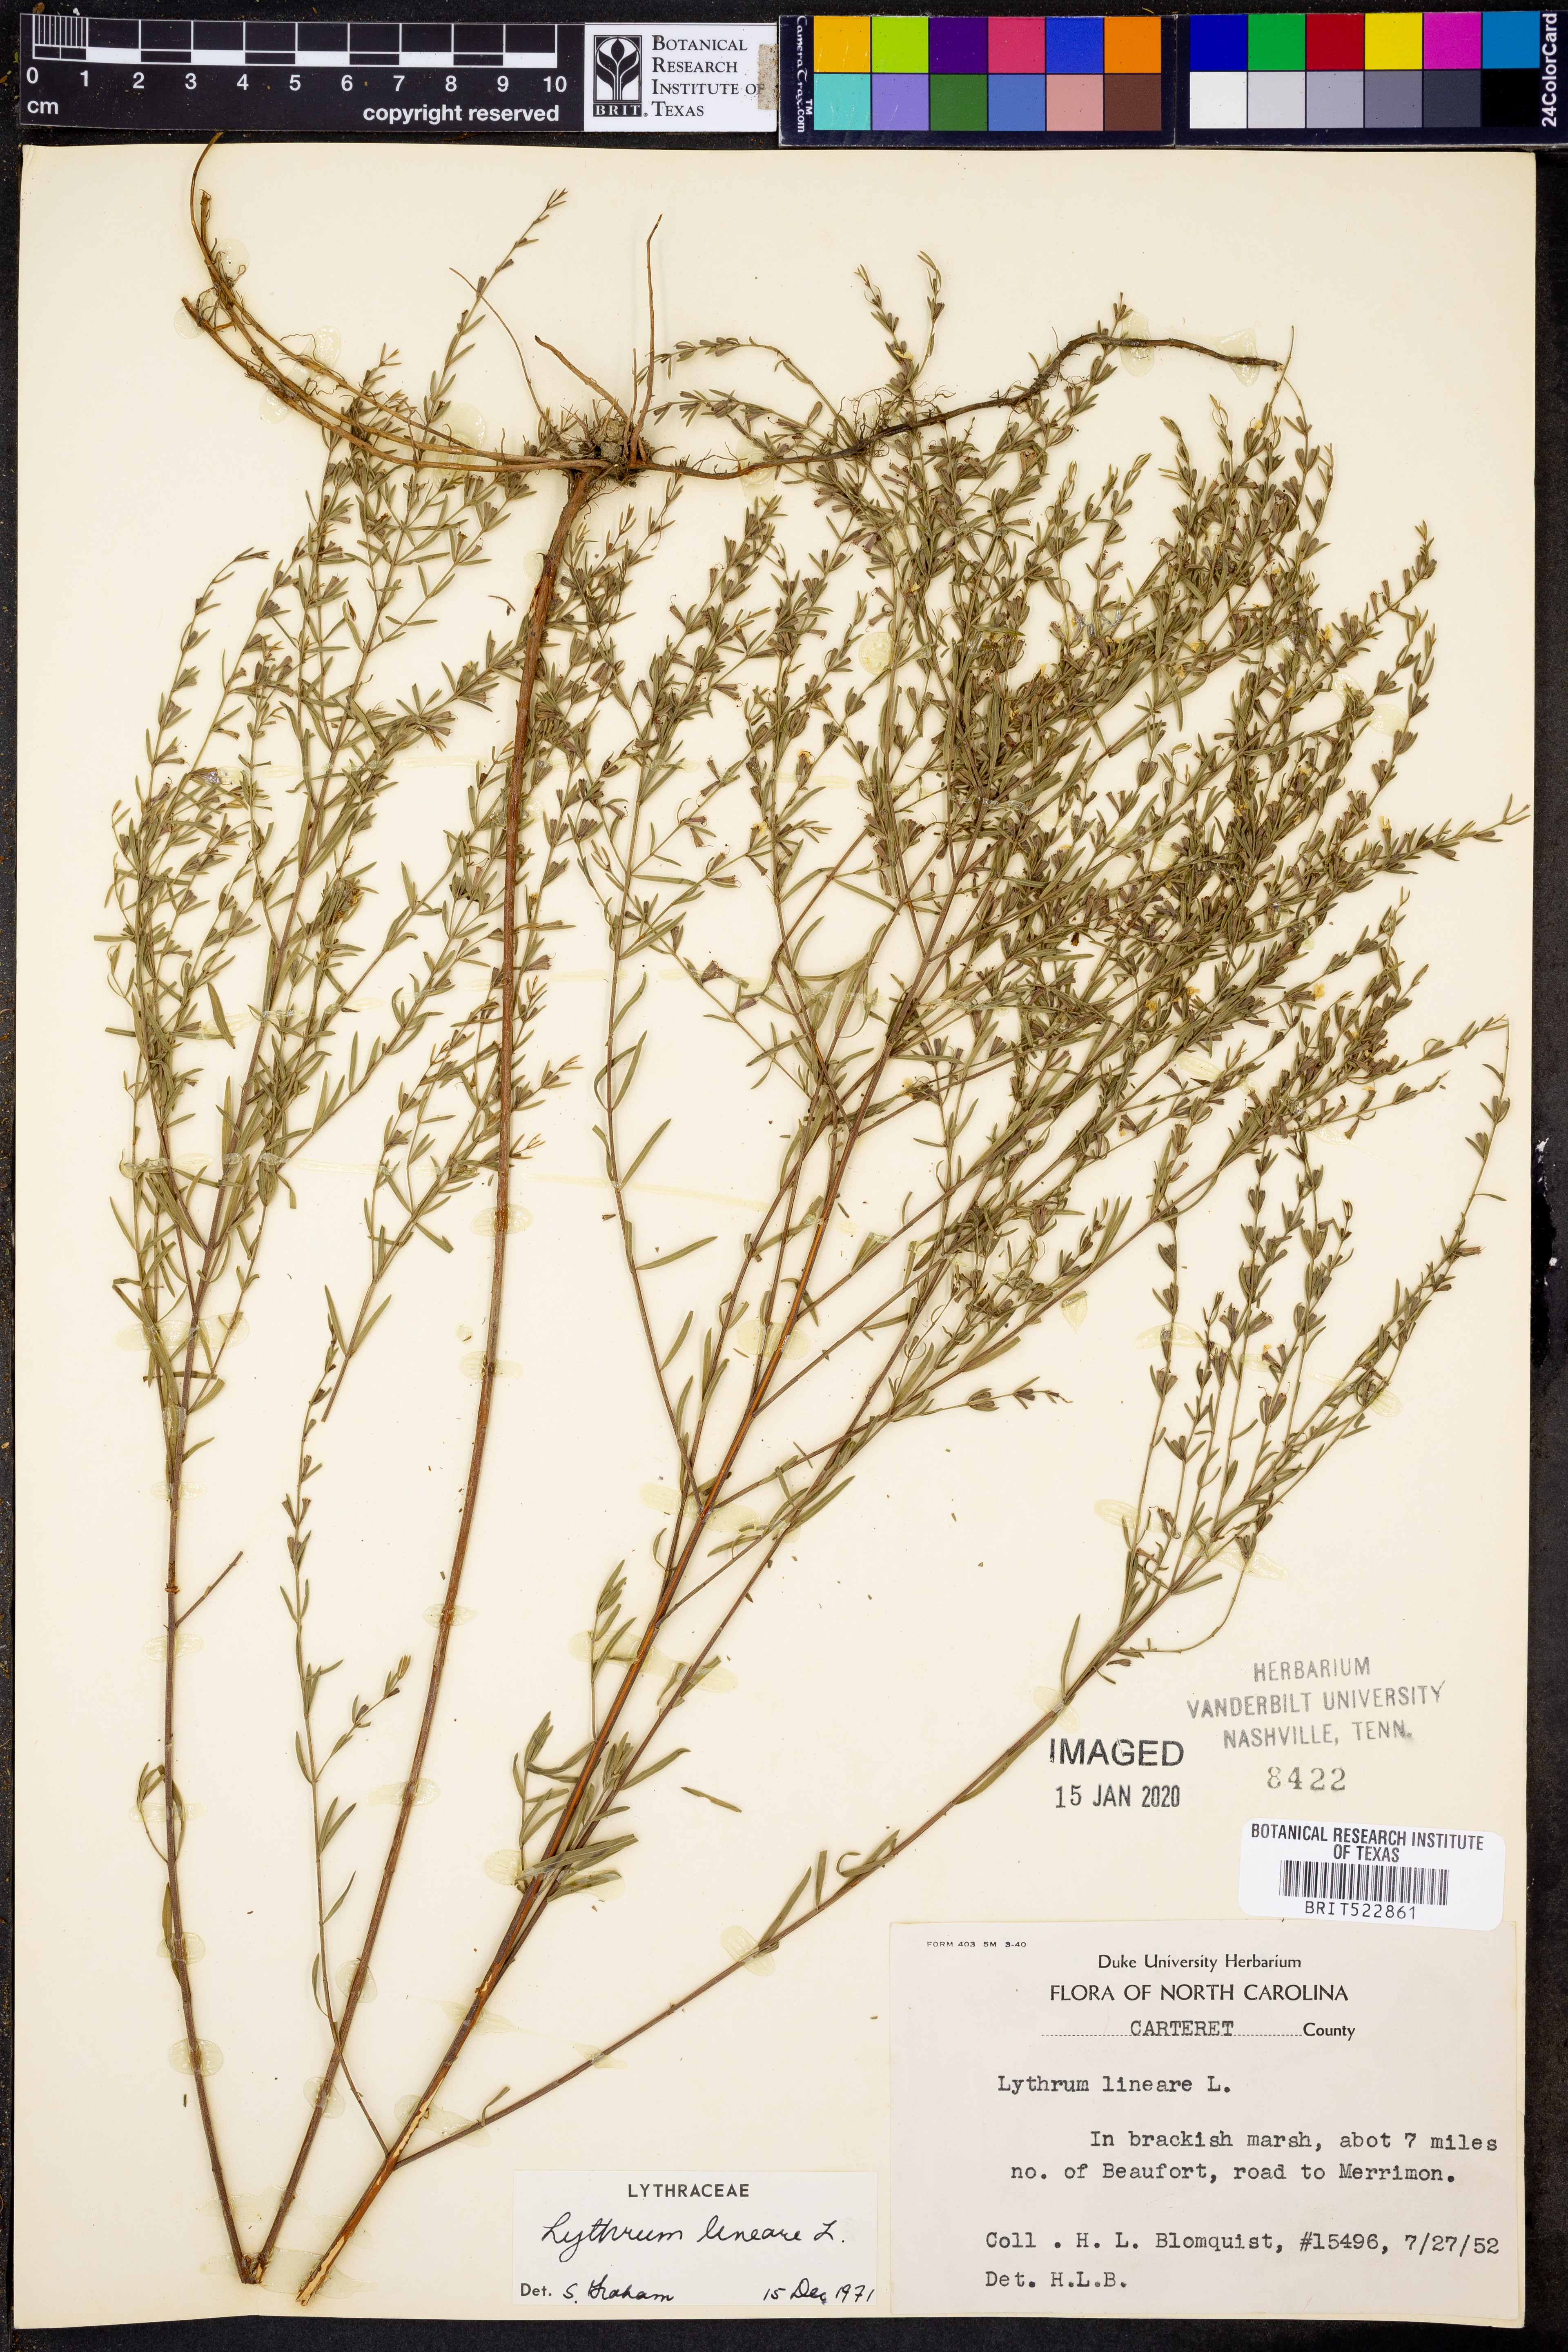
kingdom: Plantae
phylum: Tracheophyta
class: Magnoliopsida
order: Myrtales
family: Lythraceae
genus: Lythrum
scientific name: Lythrum lineare
